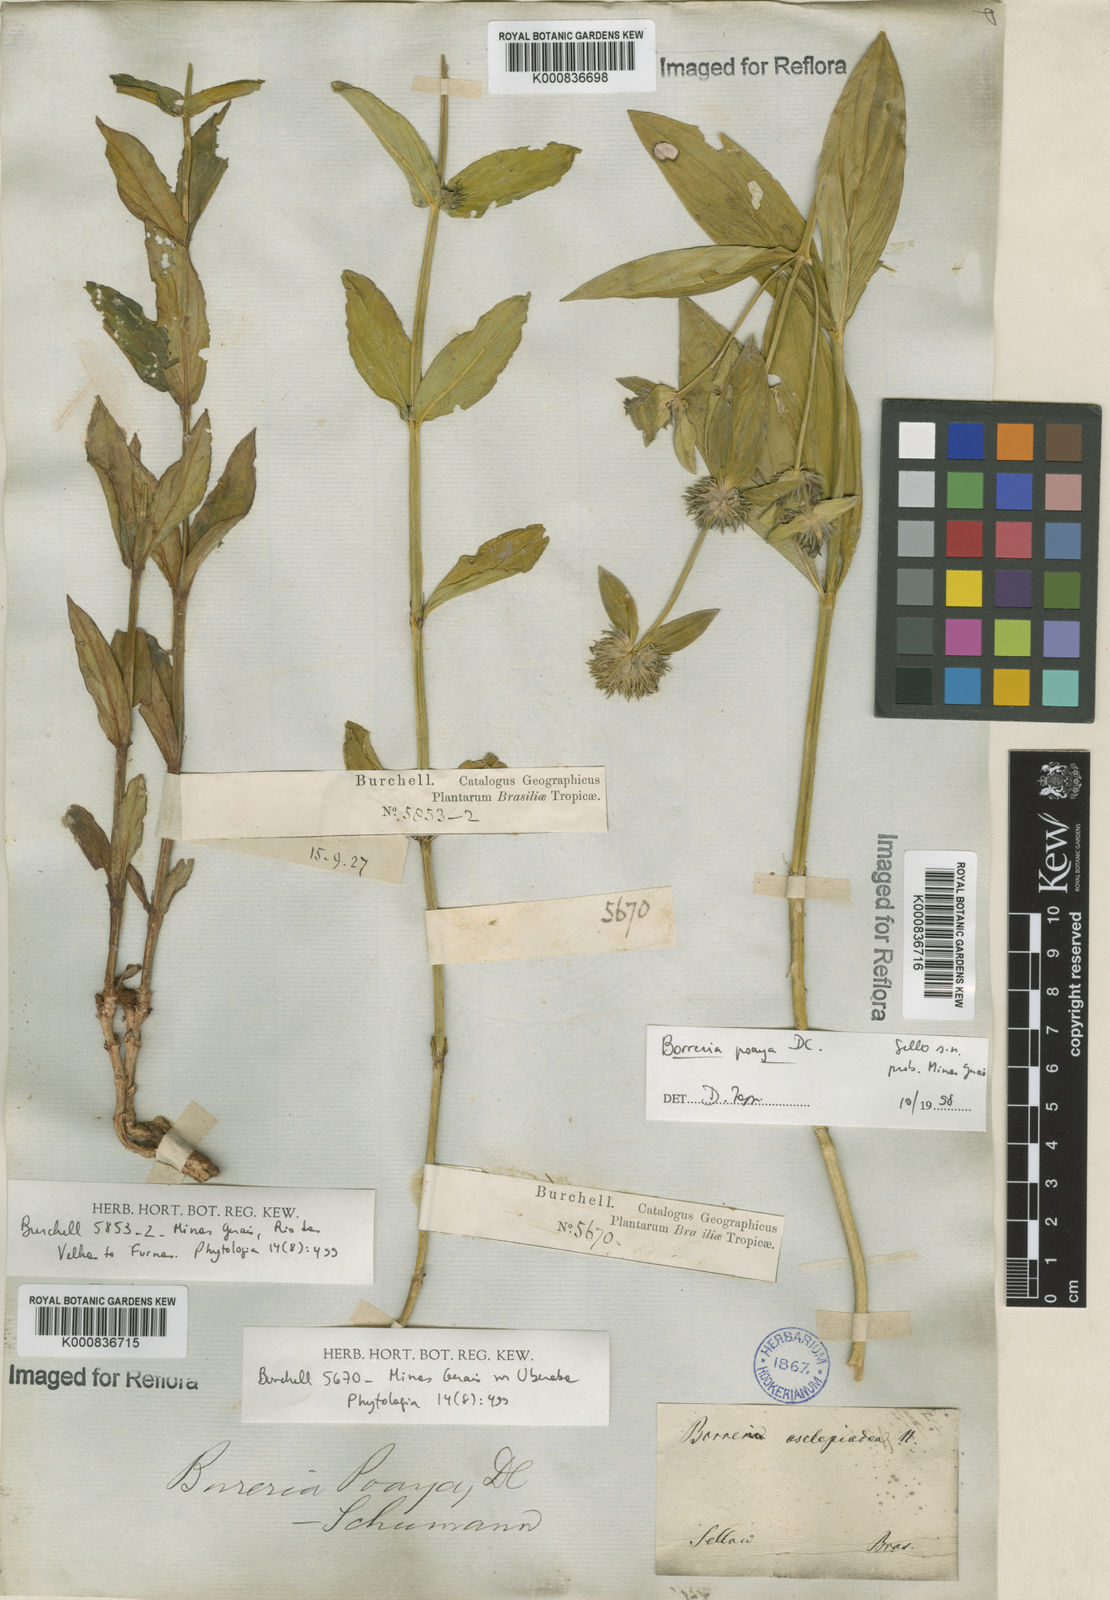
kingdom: Plantae
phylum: Tracheophyta
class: Magnoliopsida
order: Gentianales
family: Rubiaceae
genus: Spermacoce
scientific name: Spermacoce poaya
